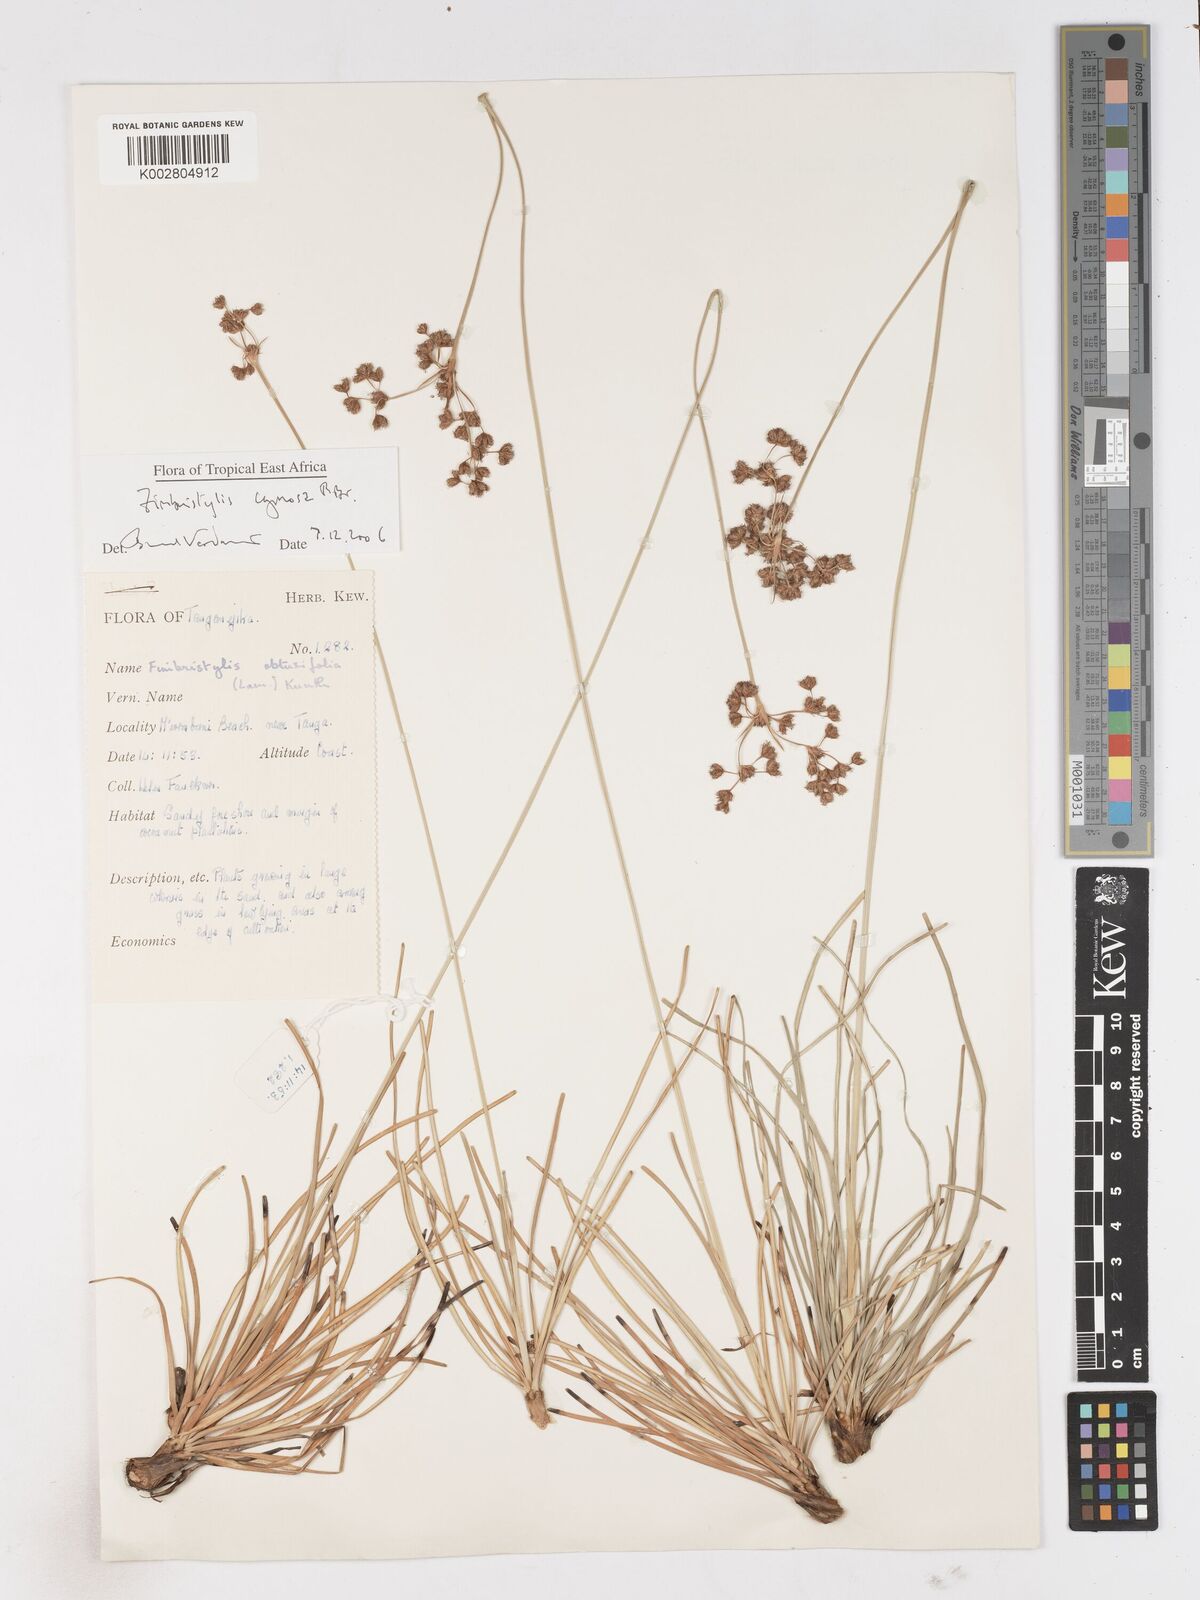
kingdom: Plantae
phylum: Tracheophyta
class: Liliopsida
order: Poales
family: Cyperaceae
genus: Fimbristylis
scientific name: Fimbristylis cymosa
